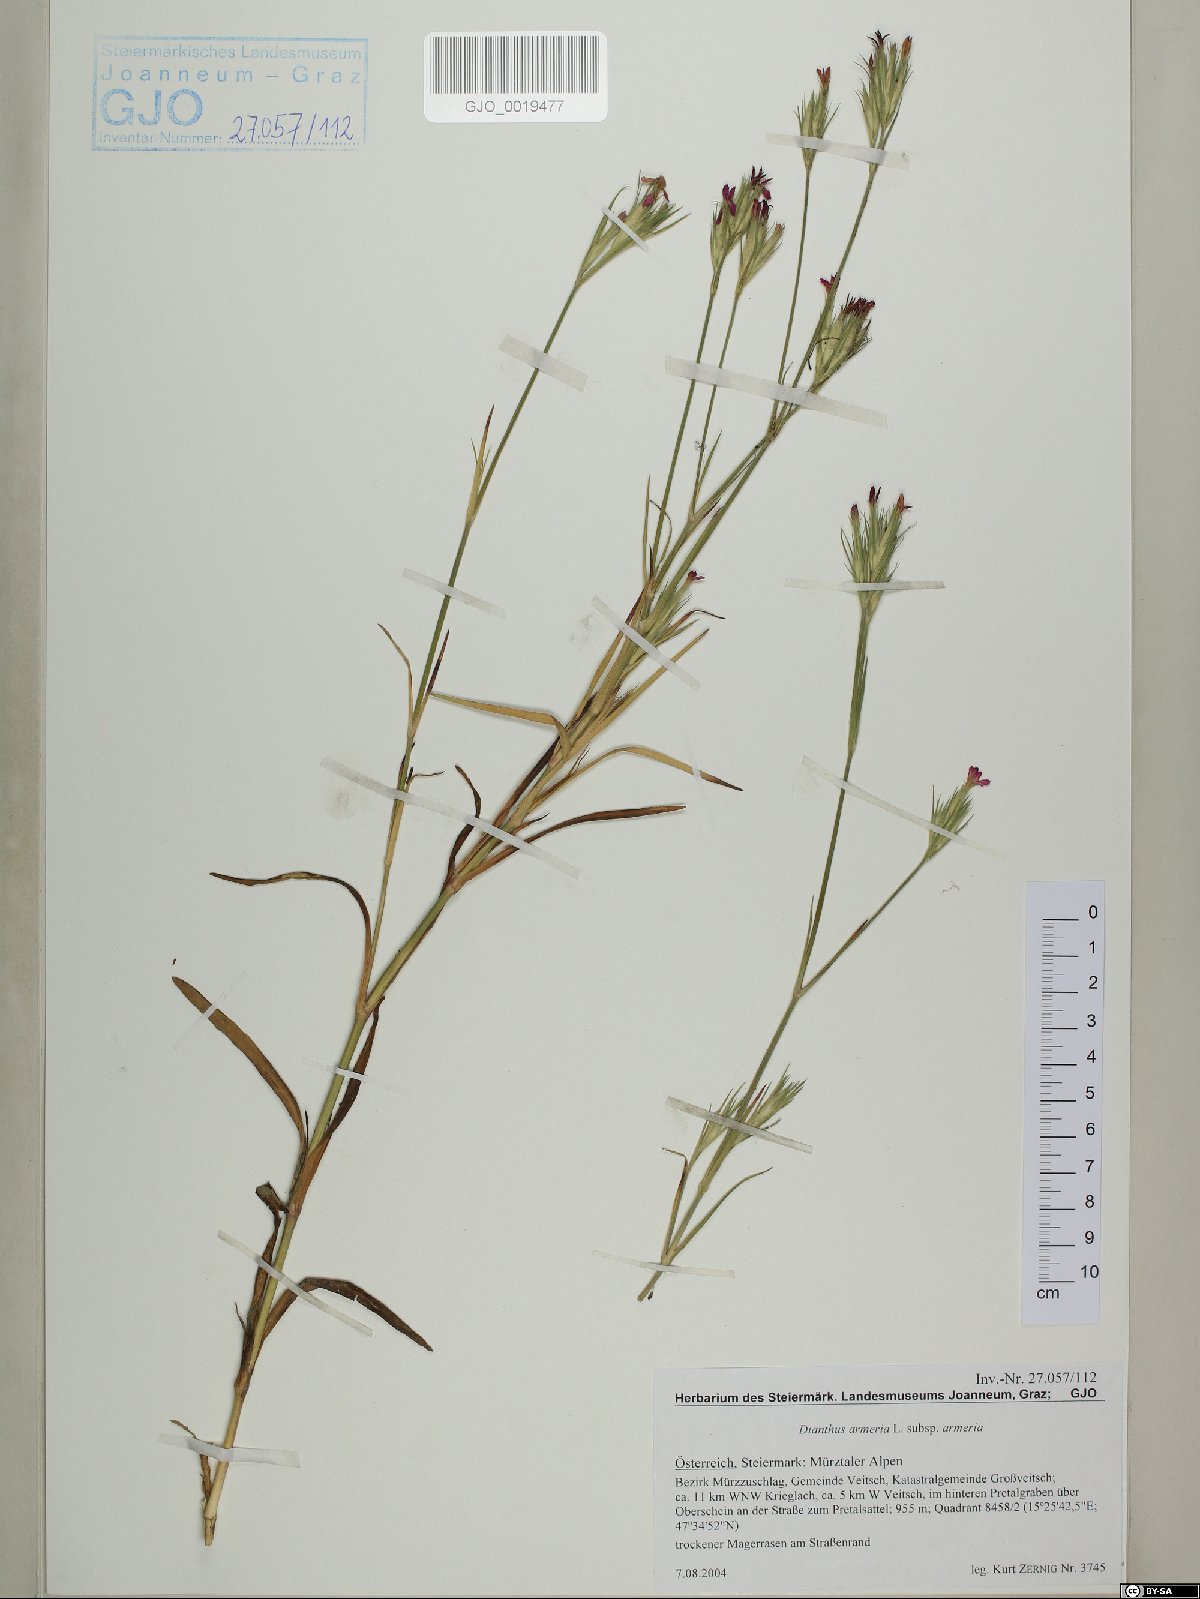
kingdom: Plantae
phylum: Tracheophyta
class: Magnoliopsida
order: Caryophyllales
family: Caryophyllaceae
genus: Dianthus
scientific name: Dianthus armeria
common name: Deptford pink
